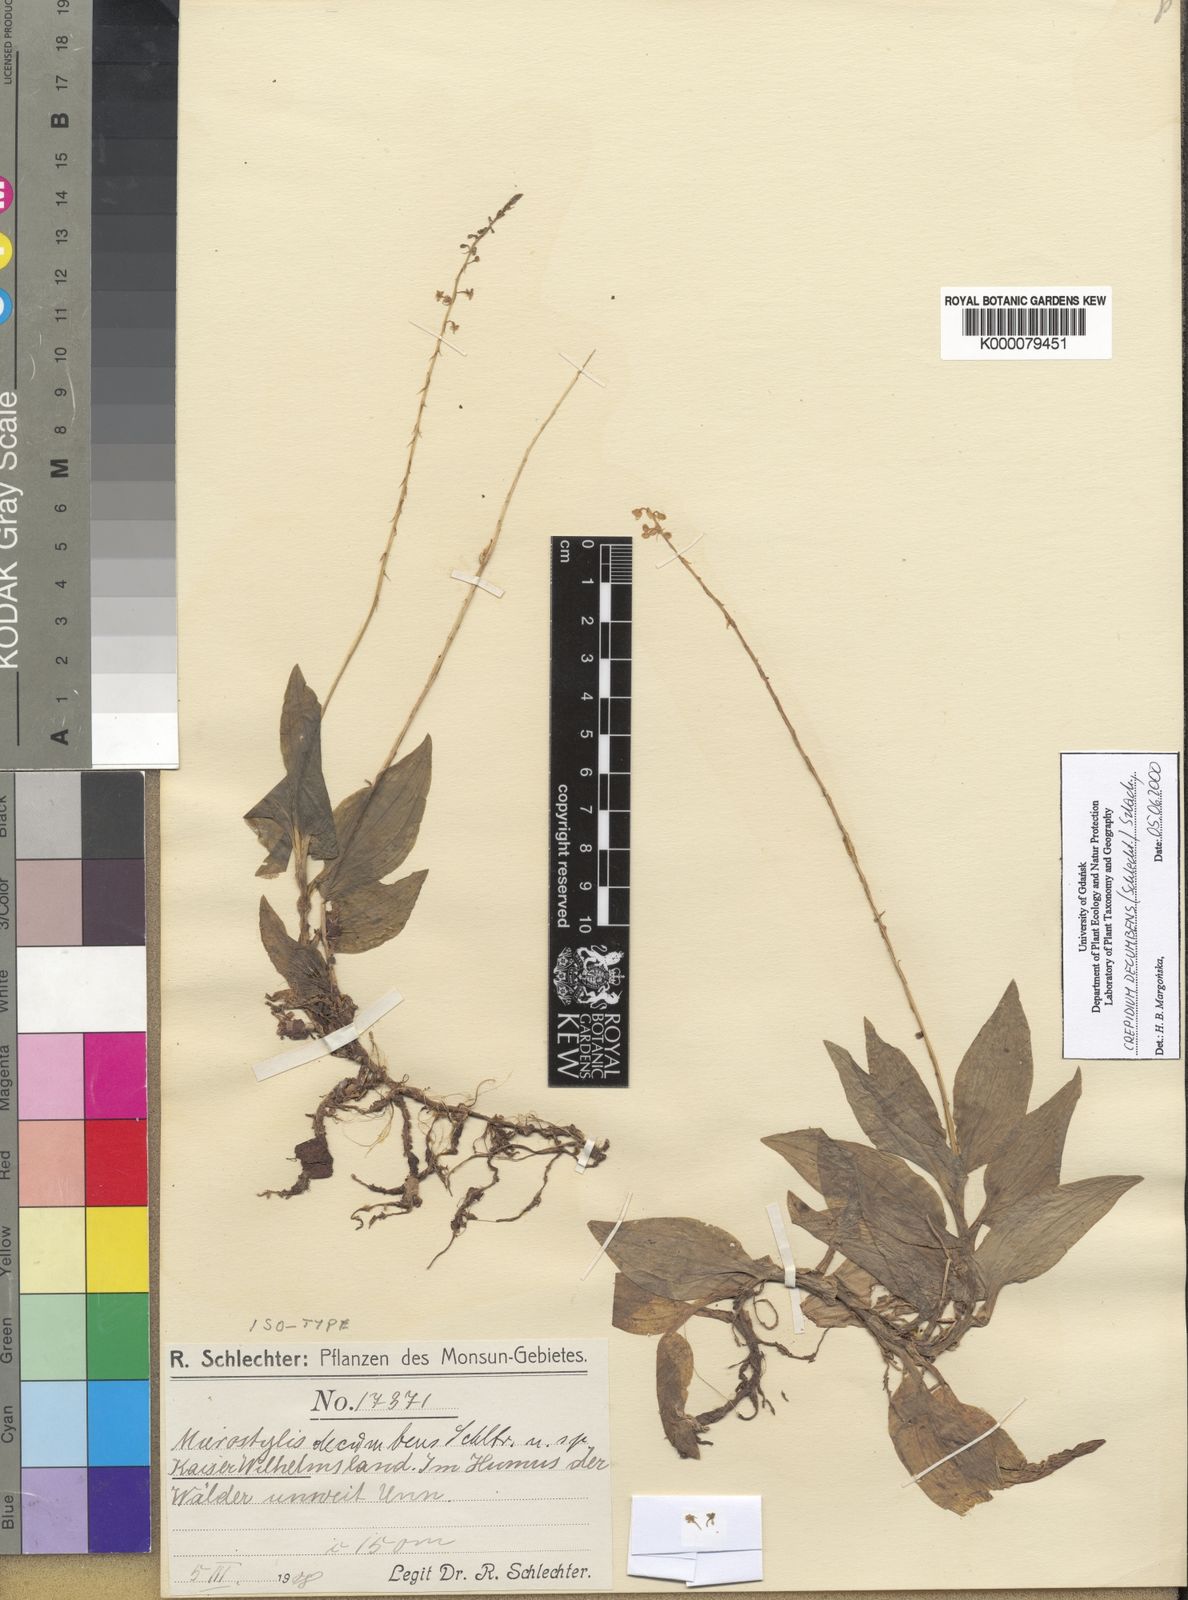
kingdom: Plantae
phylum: Tracheophyta
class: Liliopsida
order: Asparagales
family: Orchidaceae
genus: Crepidium
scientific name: Crepidium decumbens
